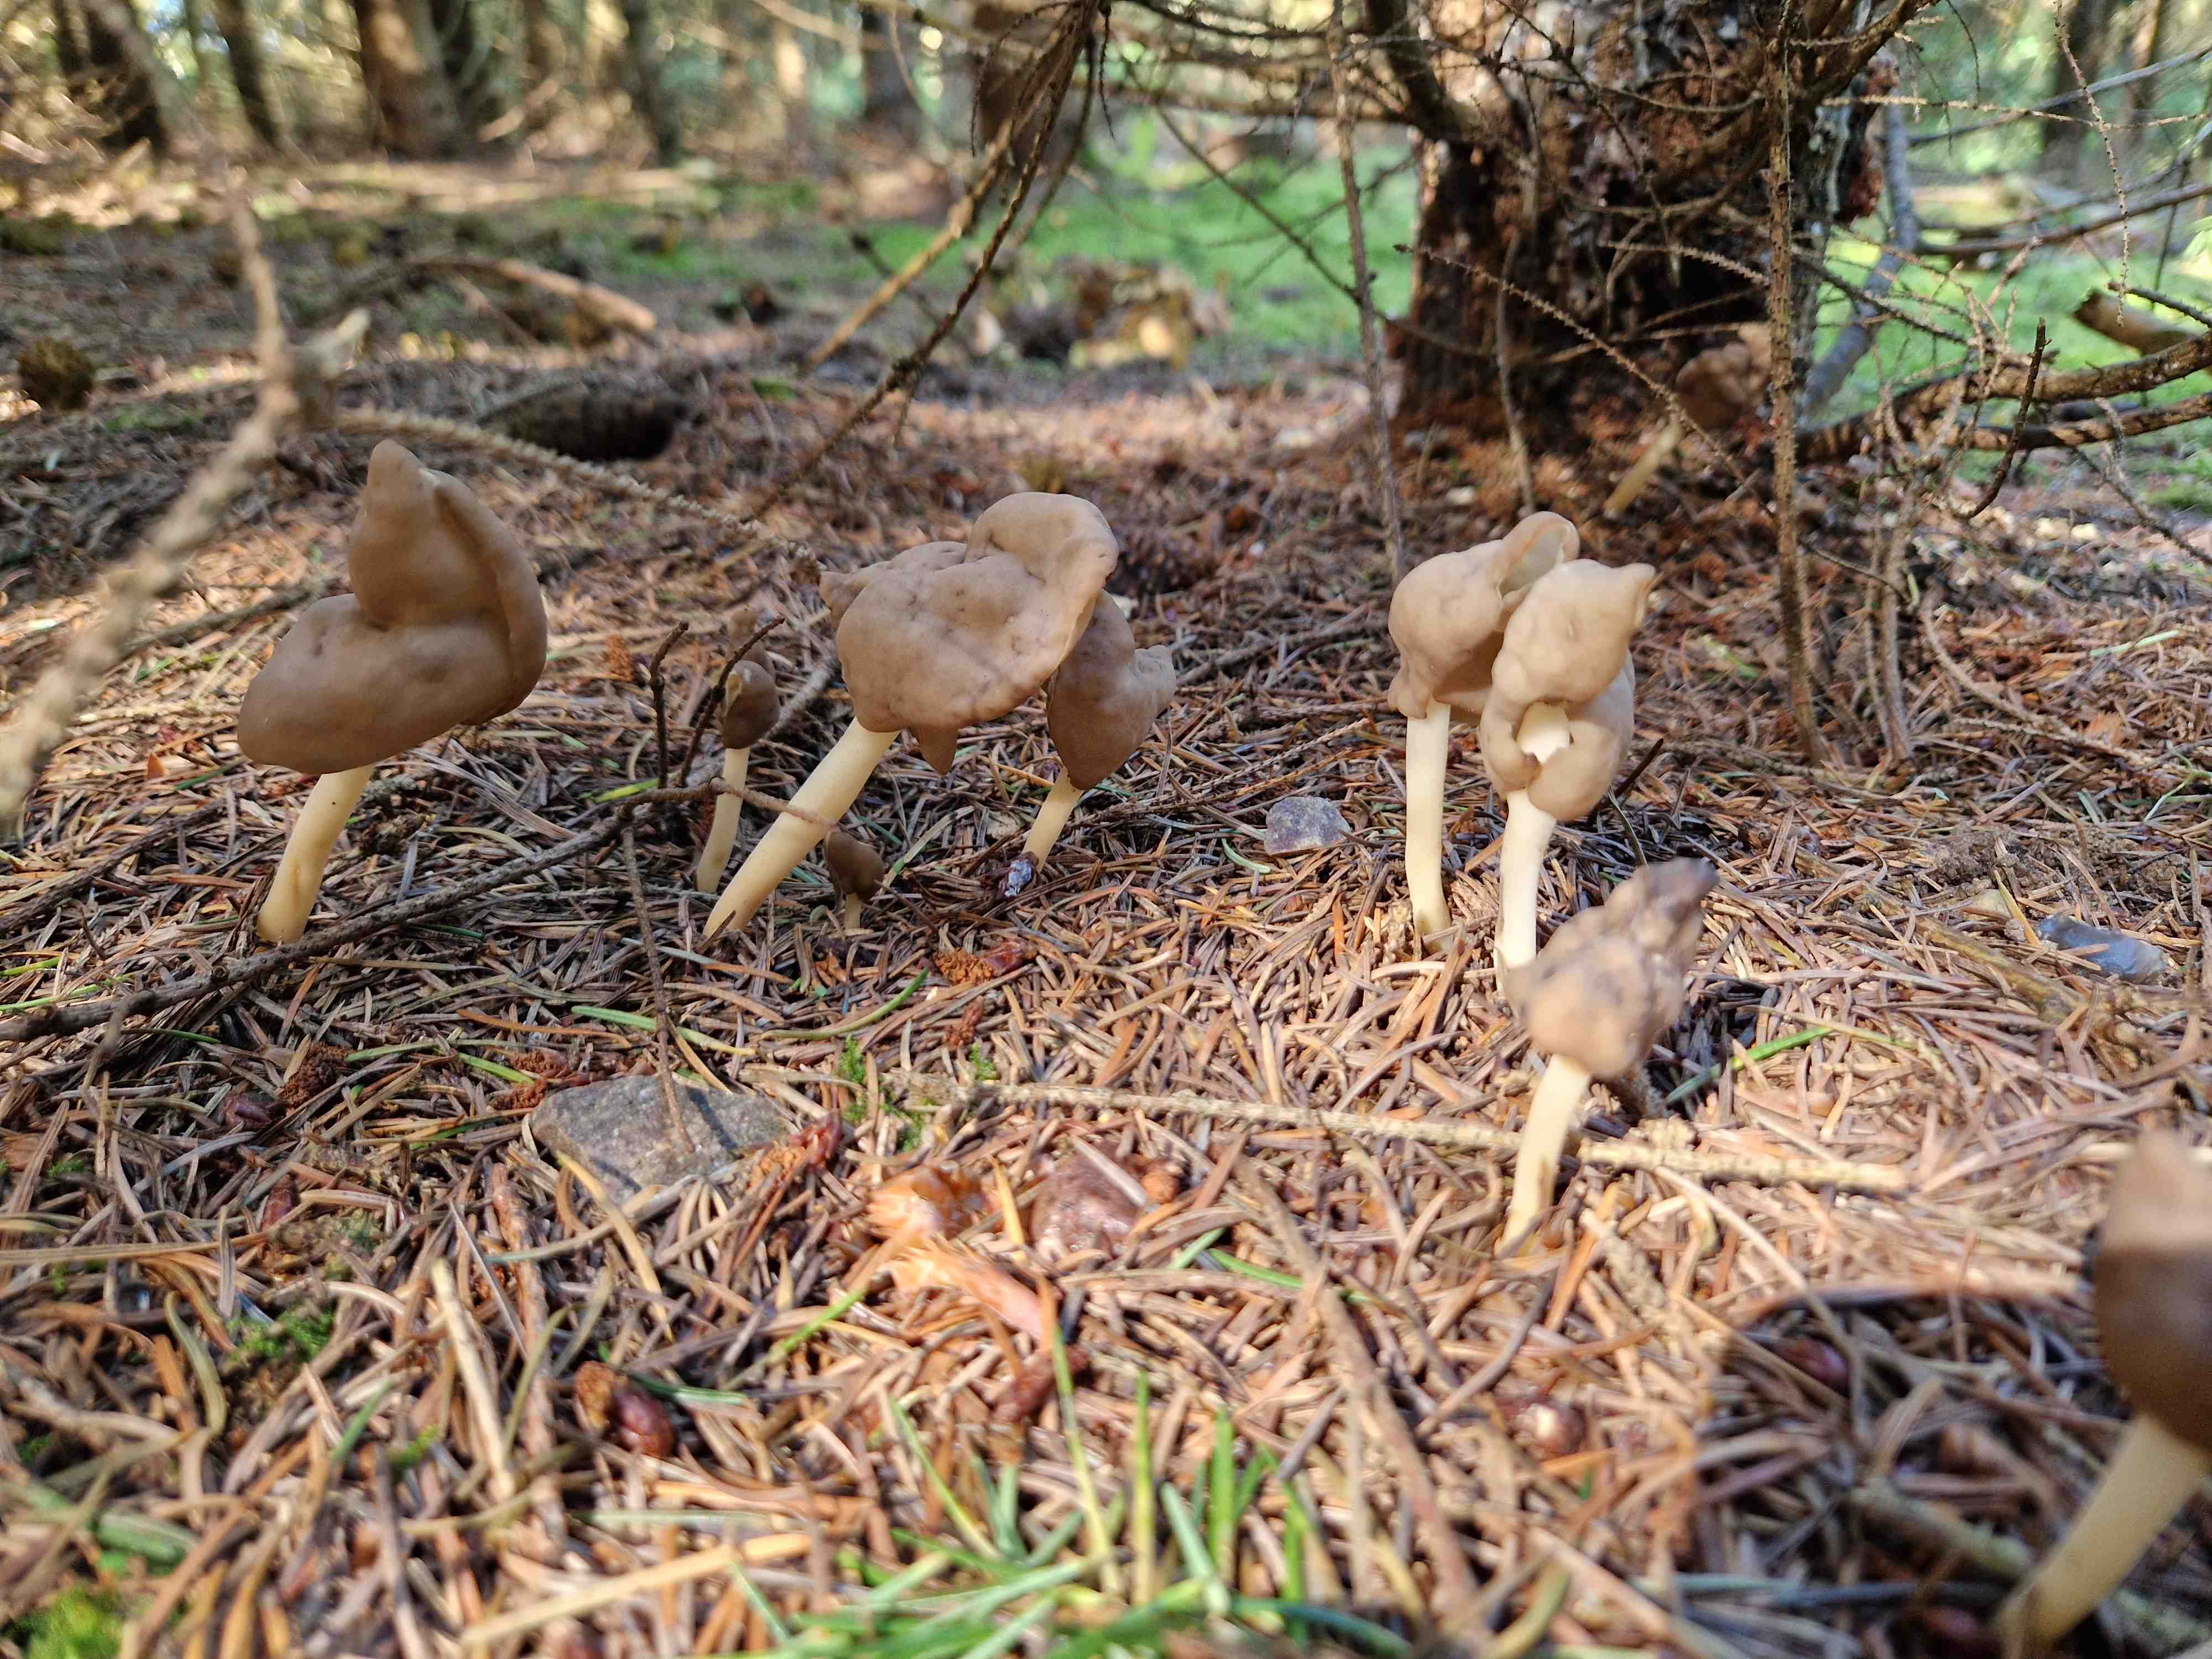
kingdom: Fungi
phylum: Ascomycota
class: Pezizomycetes
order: Pezizales
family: Helvellaceae
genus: Helvella
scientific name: Helvella elastica
